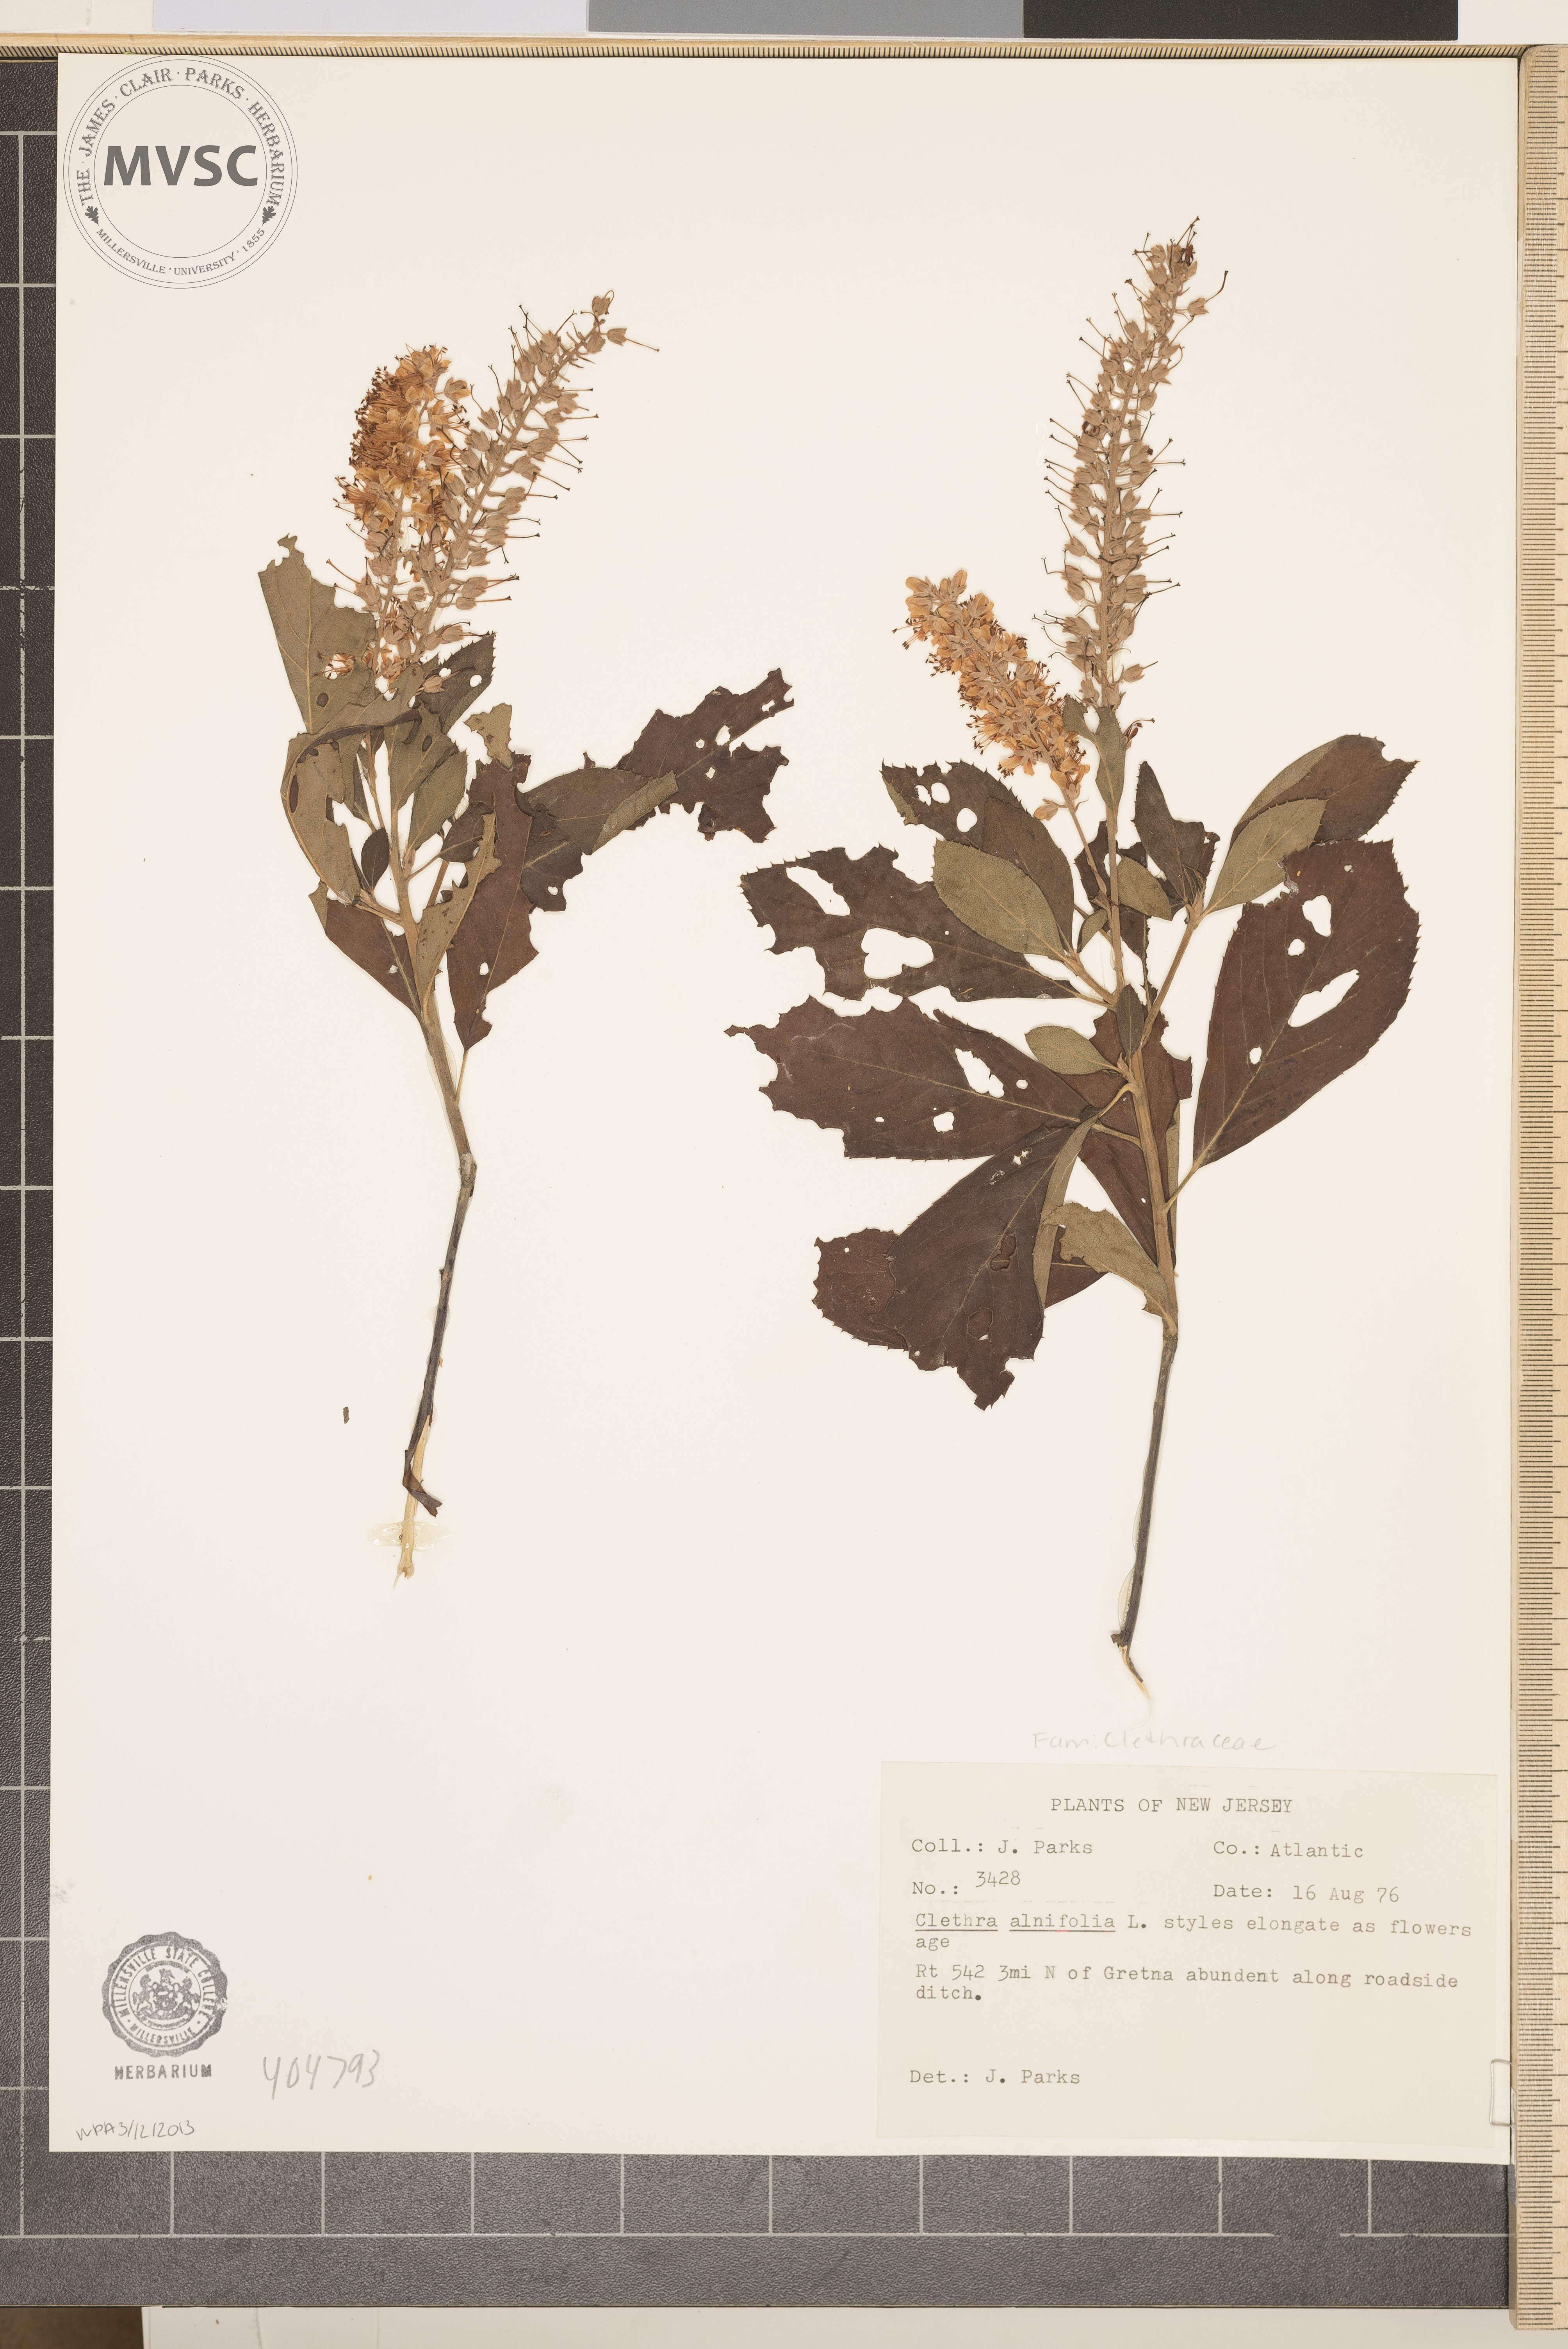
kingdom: Plantae
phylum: Tracheophyta
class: Magnoliopsida
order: Ericales
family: Clethraceae
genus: Clethra
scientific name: Clethra alnifolia
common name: Sweet pepperbush
